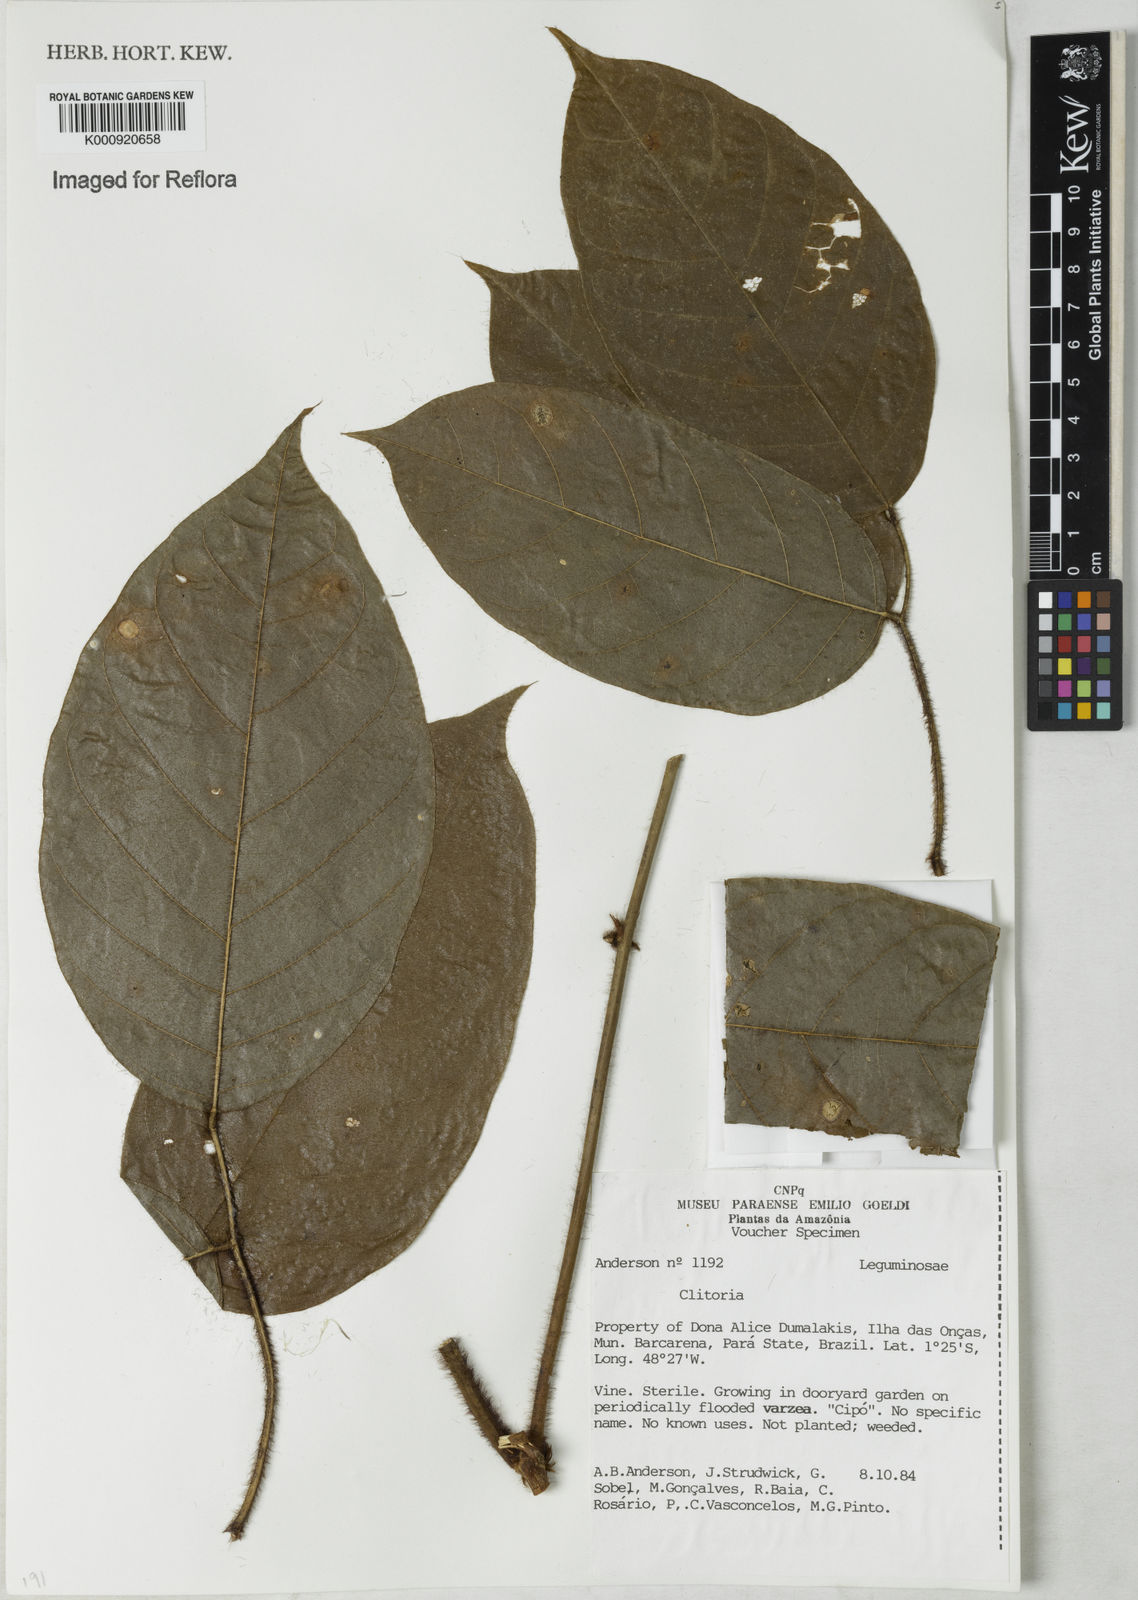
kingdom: Plantae
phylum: Tracheophyta
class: Magnoliopsida
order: Fabales
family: Fabaceae
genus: Clitoria
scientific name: Clitoria
